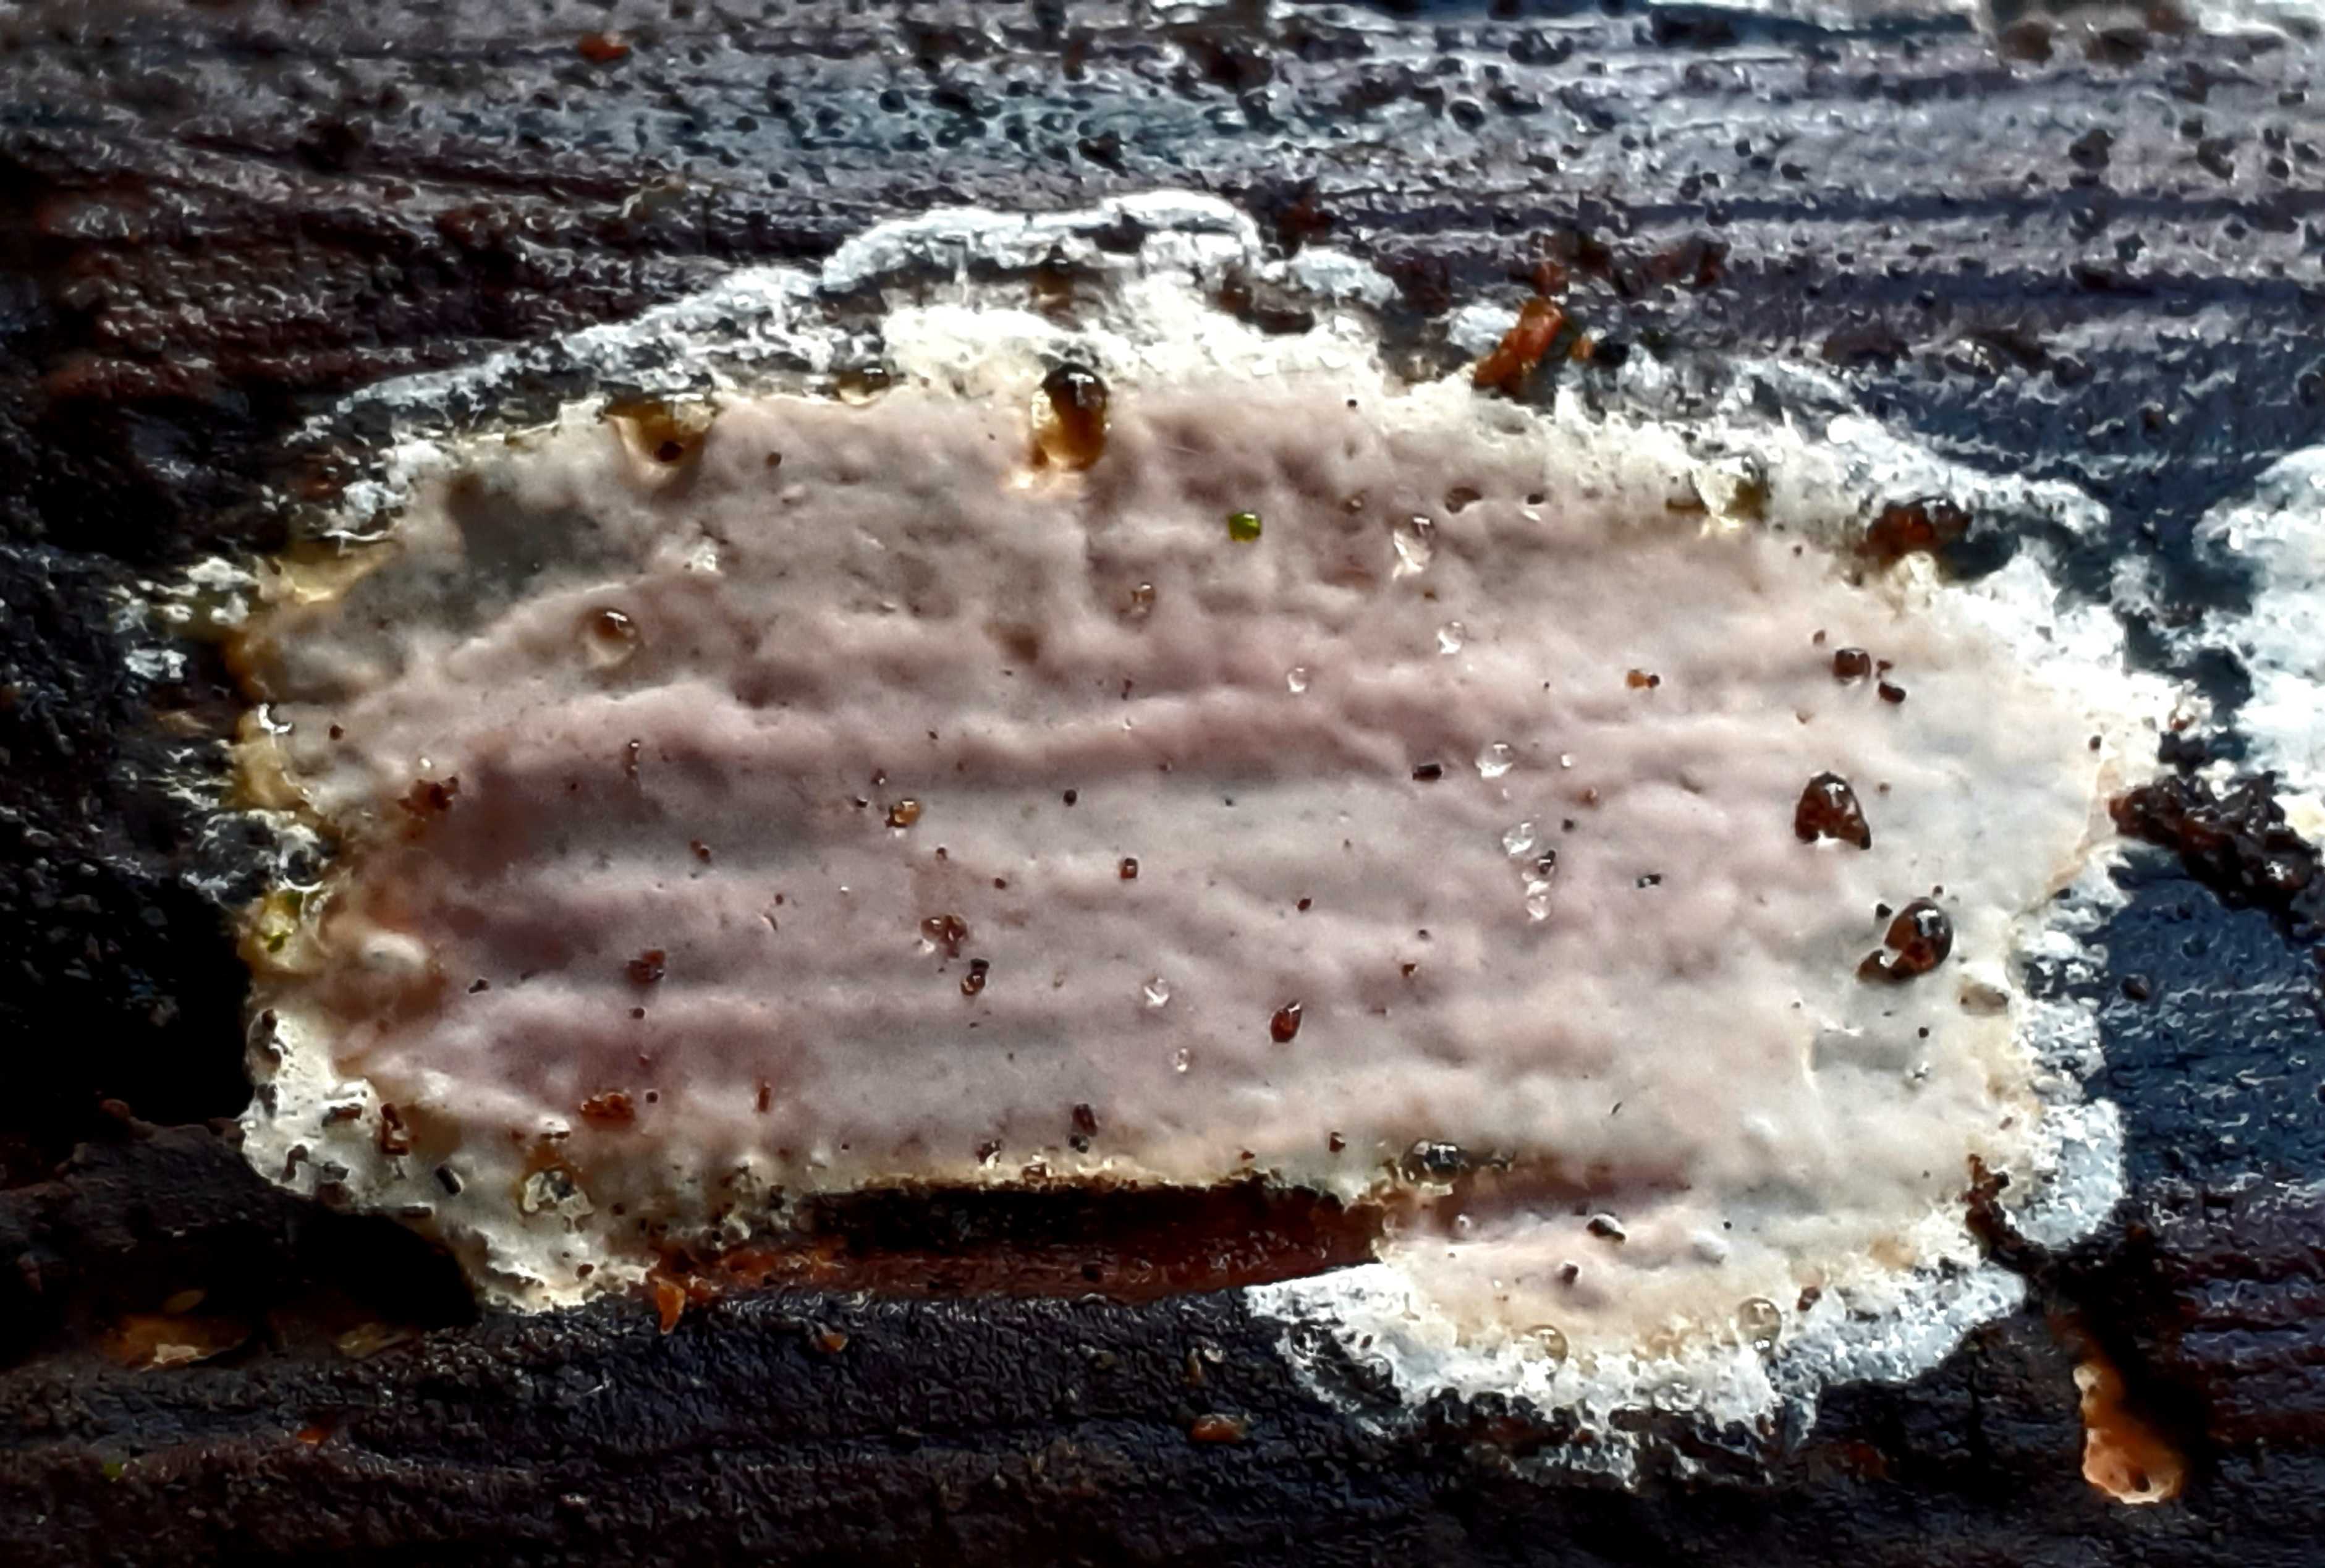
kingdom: Fungi
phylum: Basidiomycota
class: Agaricomycetes
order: Russulales
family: Peniophoraceae
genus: Scytinostroma
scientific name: Scytinostroma hemidichophyticum
